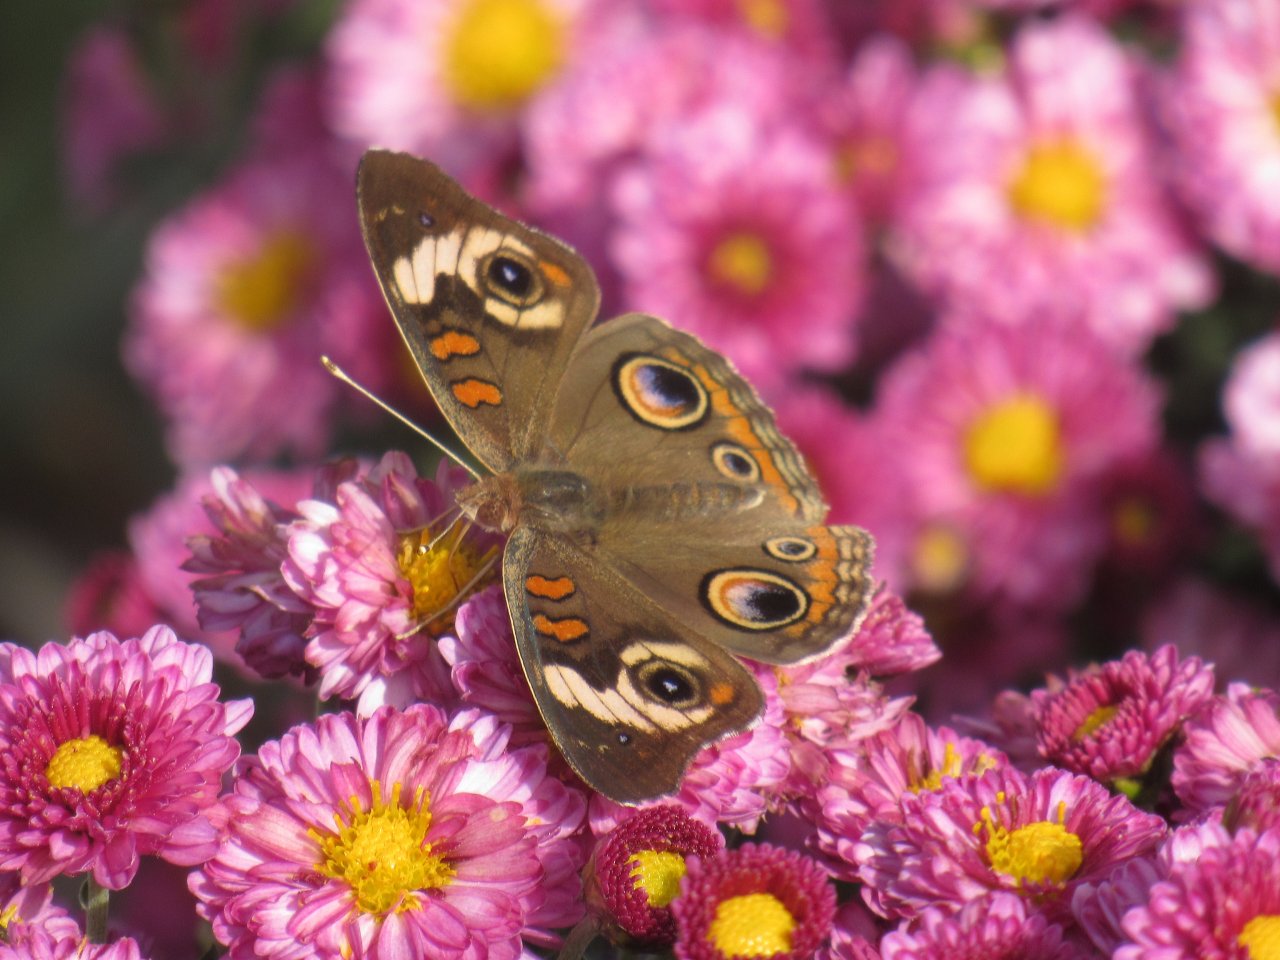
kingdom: Animalia
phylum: Arthropoda
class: Insecta
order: Lepidoptera
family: Nymphalidae
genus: Junonia
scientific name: Junonia coenia
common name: Common Buckeye
